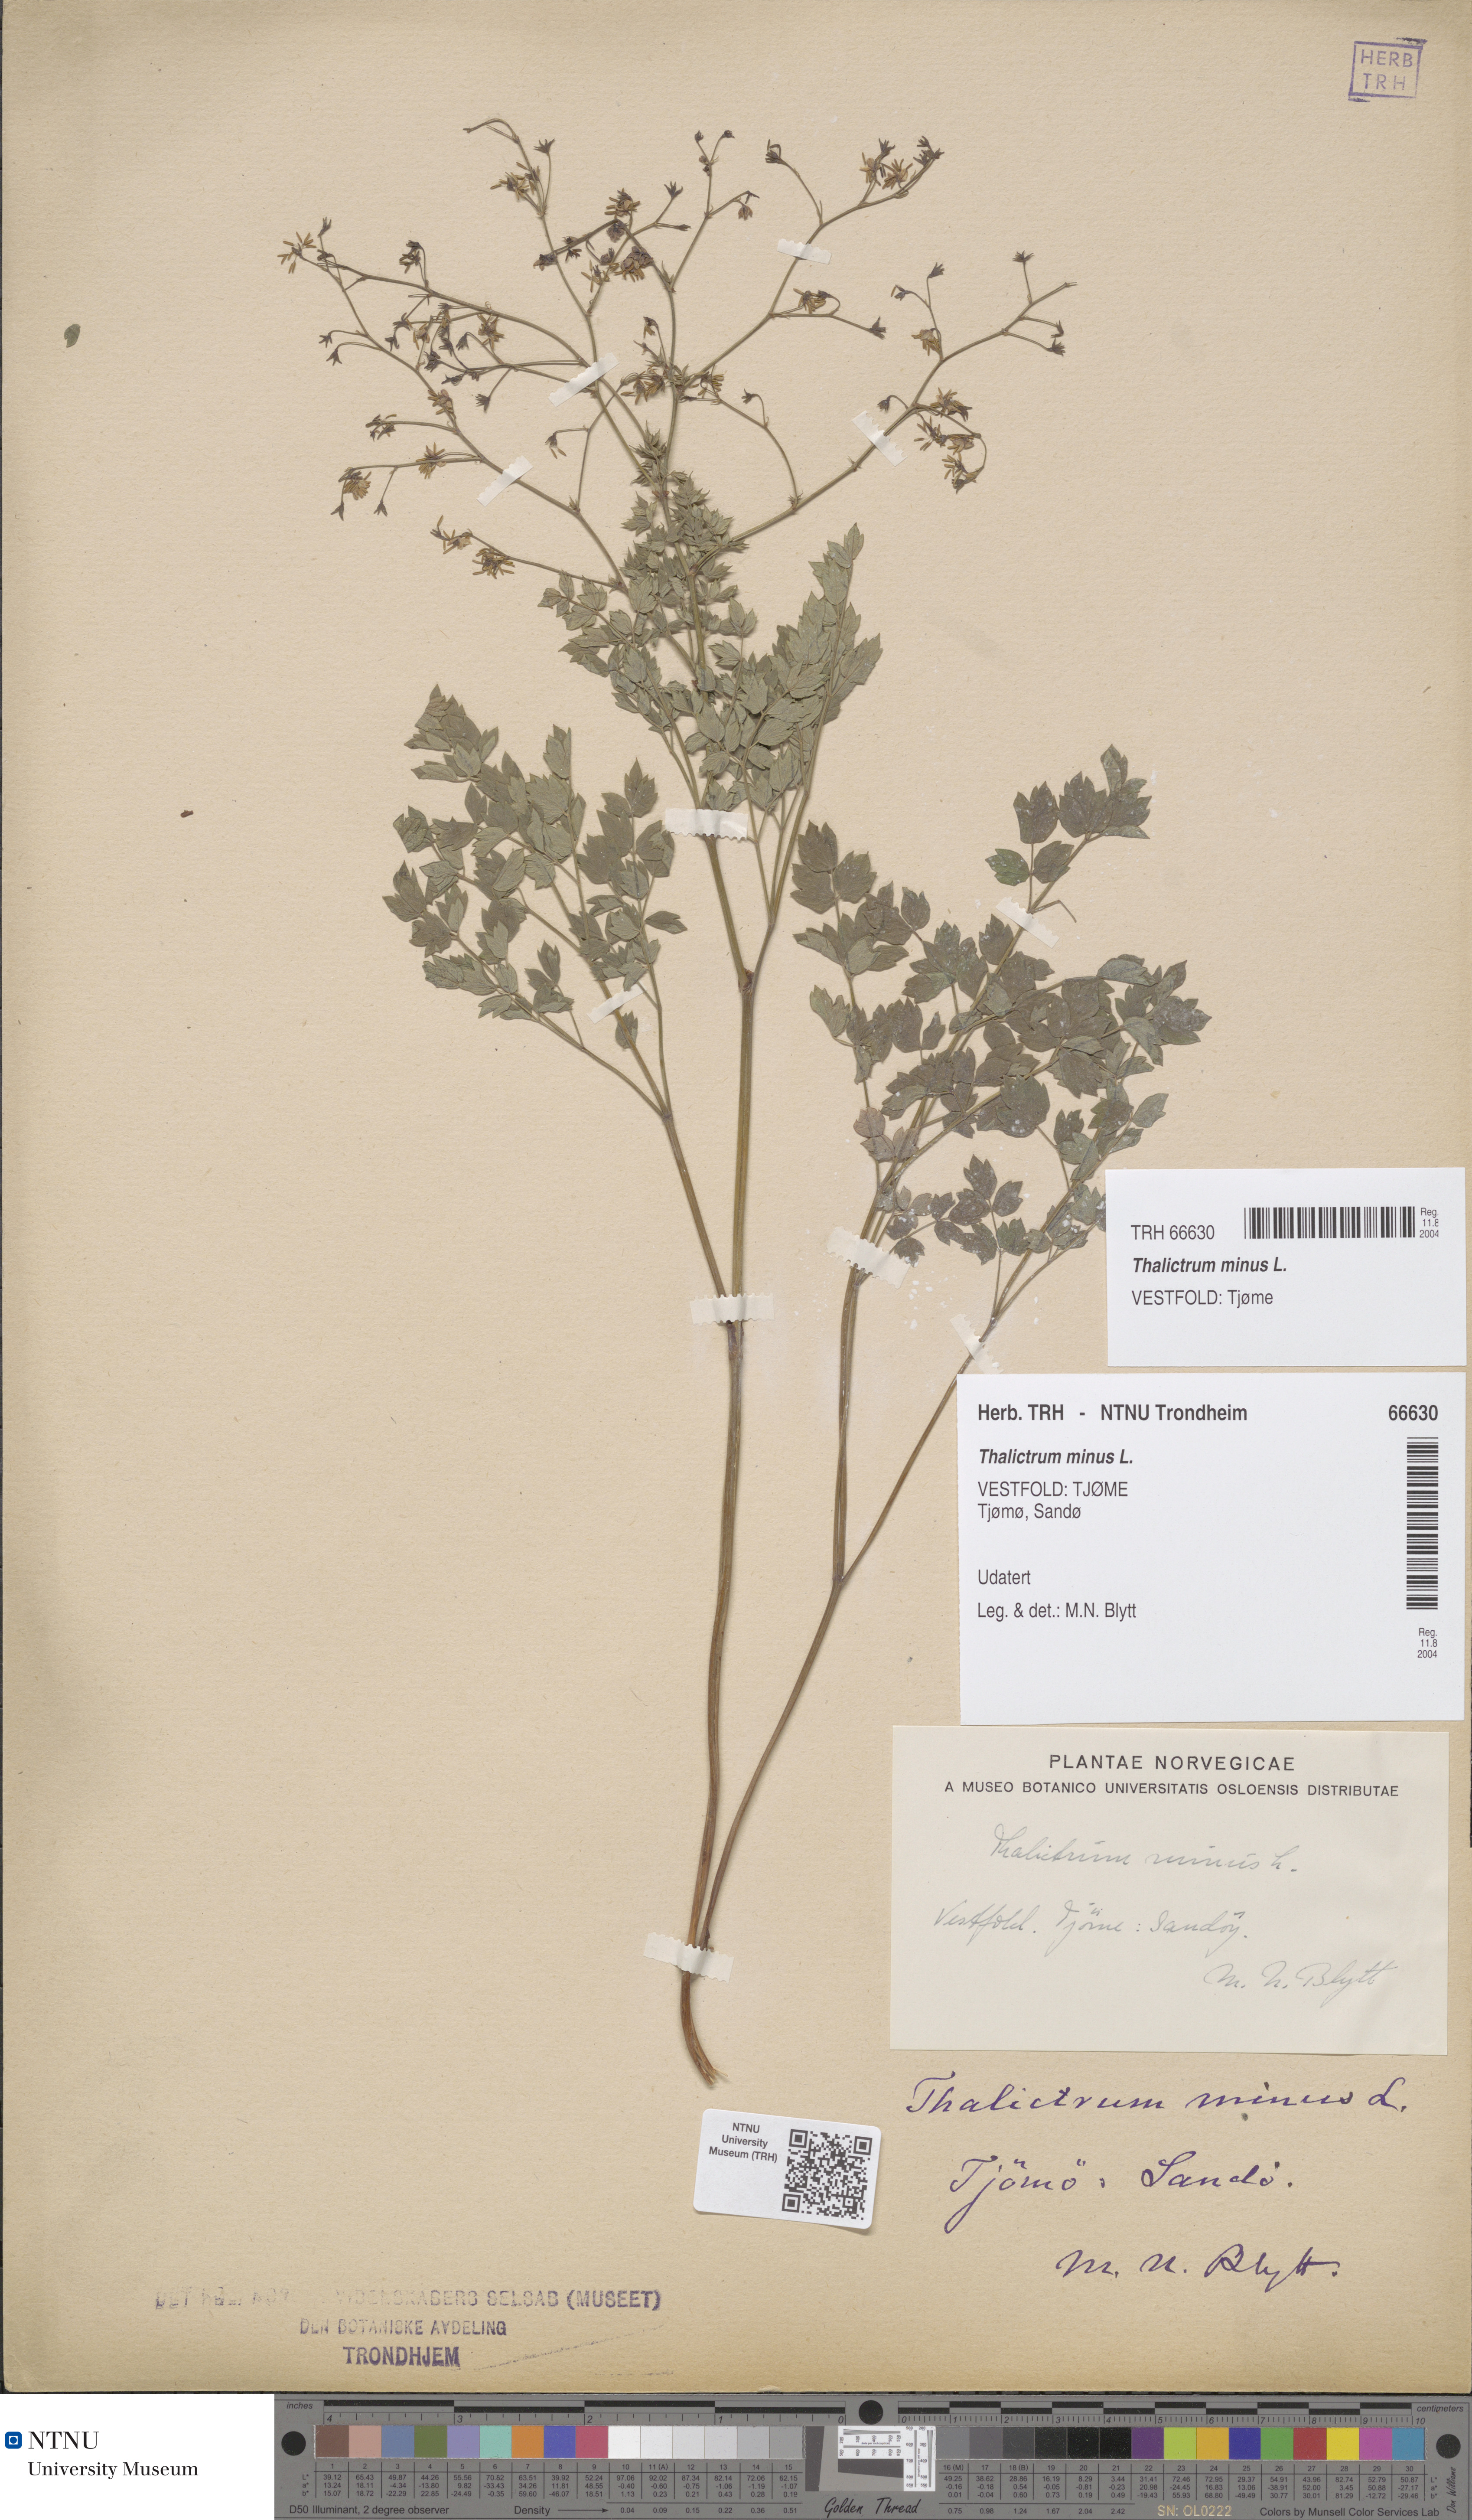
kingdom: Plantae
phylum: Tracheophyta
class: Magnoliopsida
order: Ranunculales
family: Ranunculaceae
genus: Thalictrum
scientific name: Thalictrum minus
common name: Lesser meadow-rue
